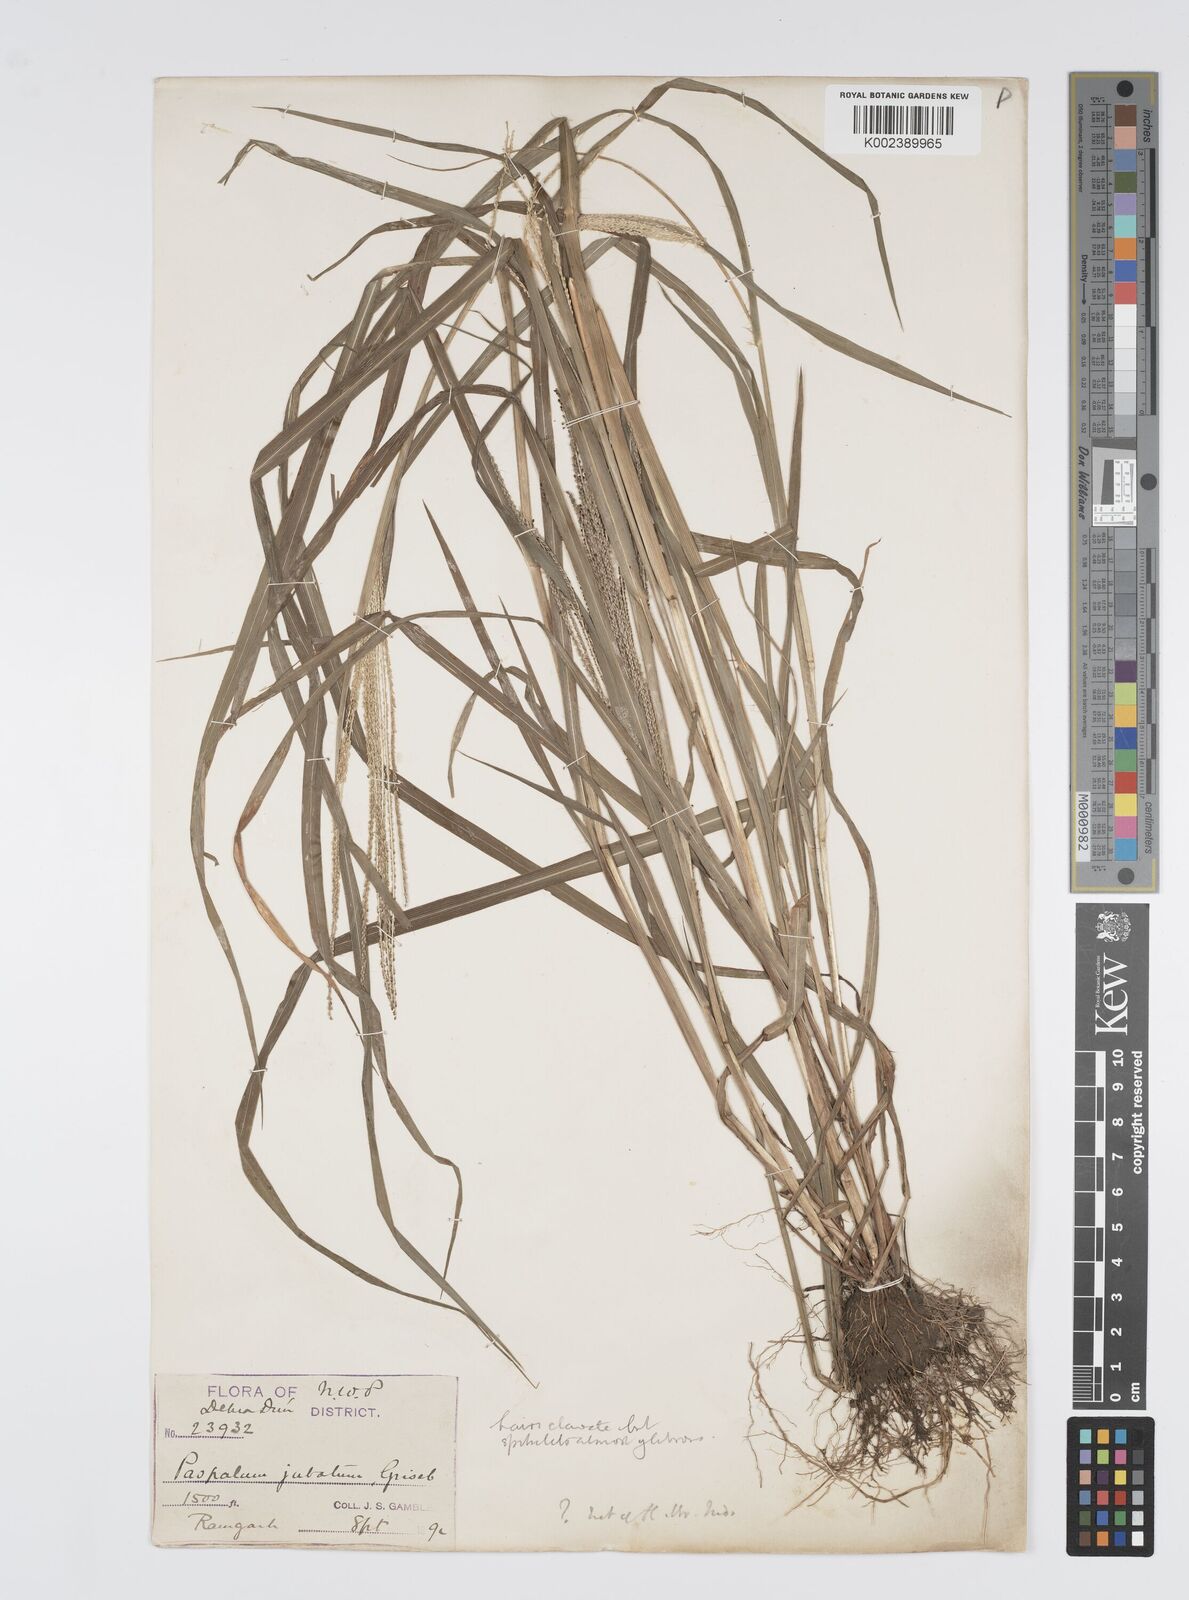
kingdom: Plantae
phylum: Tracheophyta
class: Liliopsida
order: Poales
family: Poaceae
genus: Digitaria
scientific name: Digitaria stricta
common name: Crabgrass
